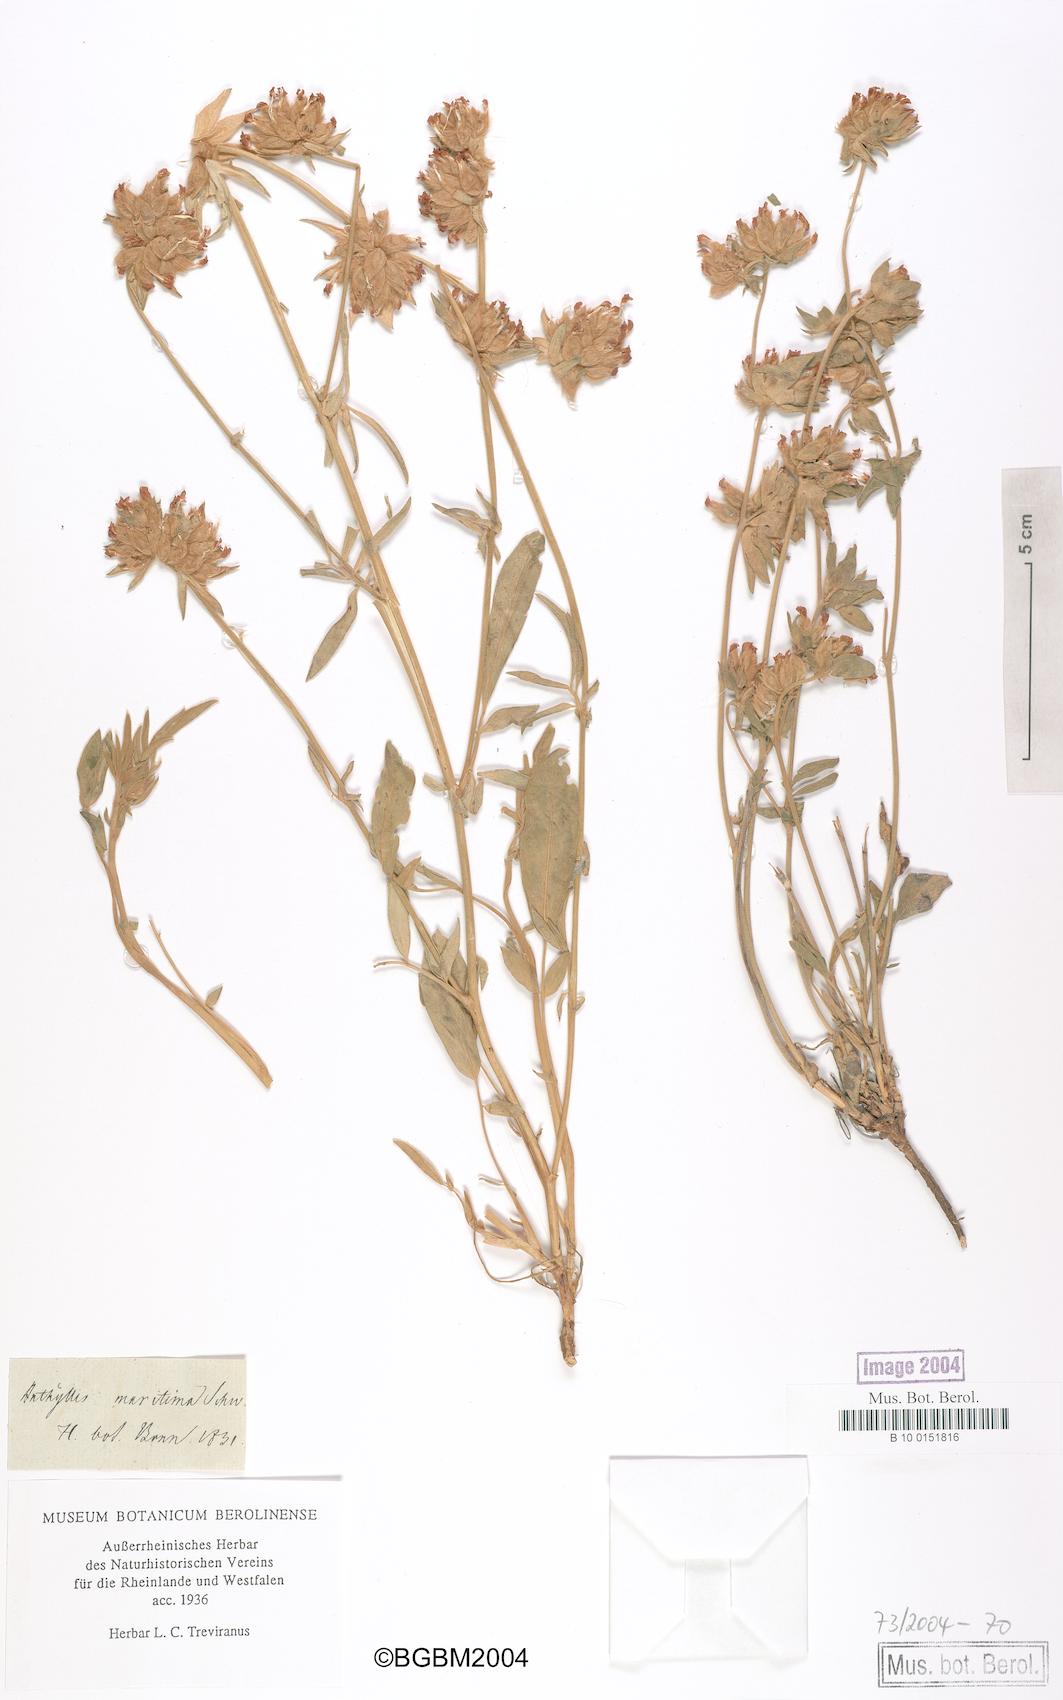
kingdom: Plantae
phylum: Tracheophyta
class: Magnoliopsida
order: Fabales
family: Fabaceae
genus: Anthyllis
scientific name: Anthyllis vulneraria
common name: Kidney vetch
